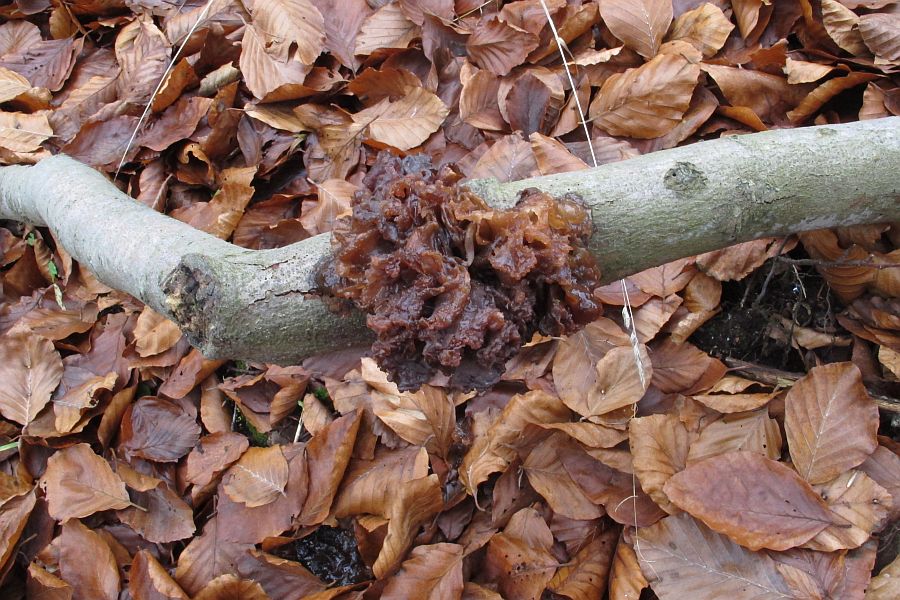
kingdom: Fungi
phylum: Basidiomycota
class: Tremellomycetes
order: Tremellales
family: Tremellaceae
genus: Phaeotremella
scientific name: Phaeotremella frondosa
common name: kæmpe-bævresvamp
